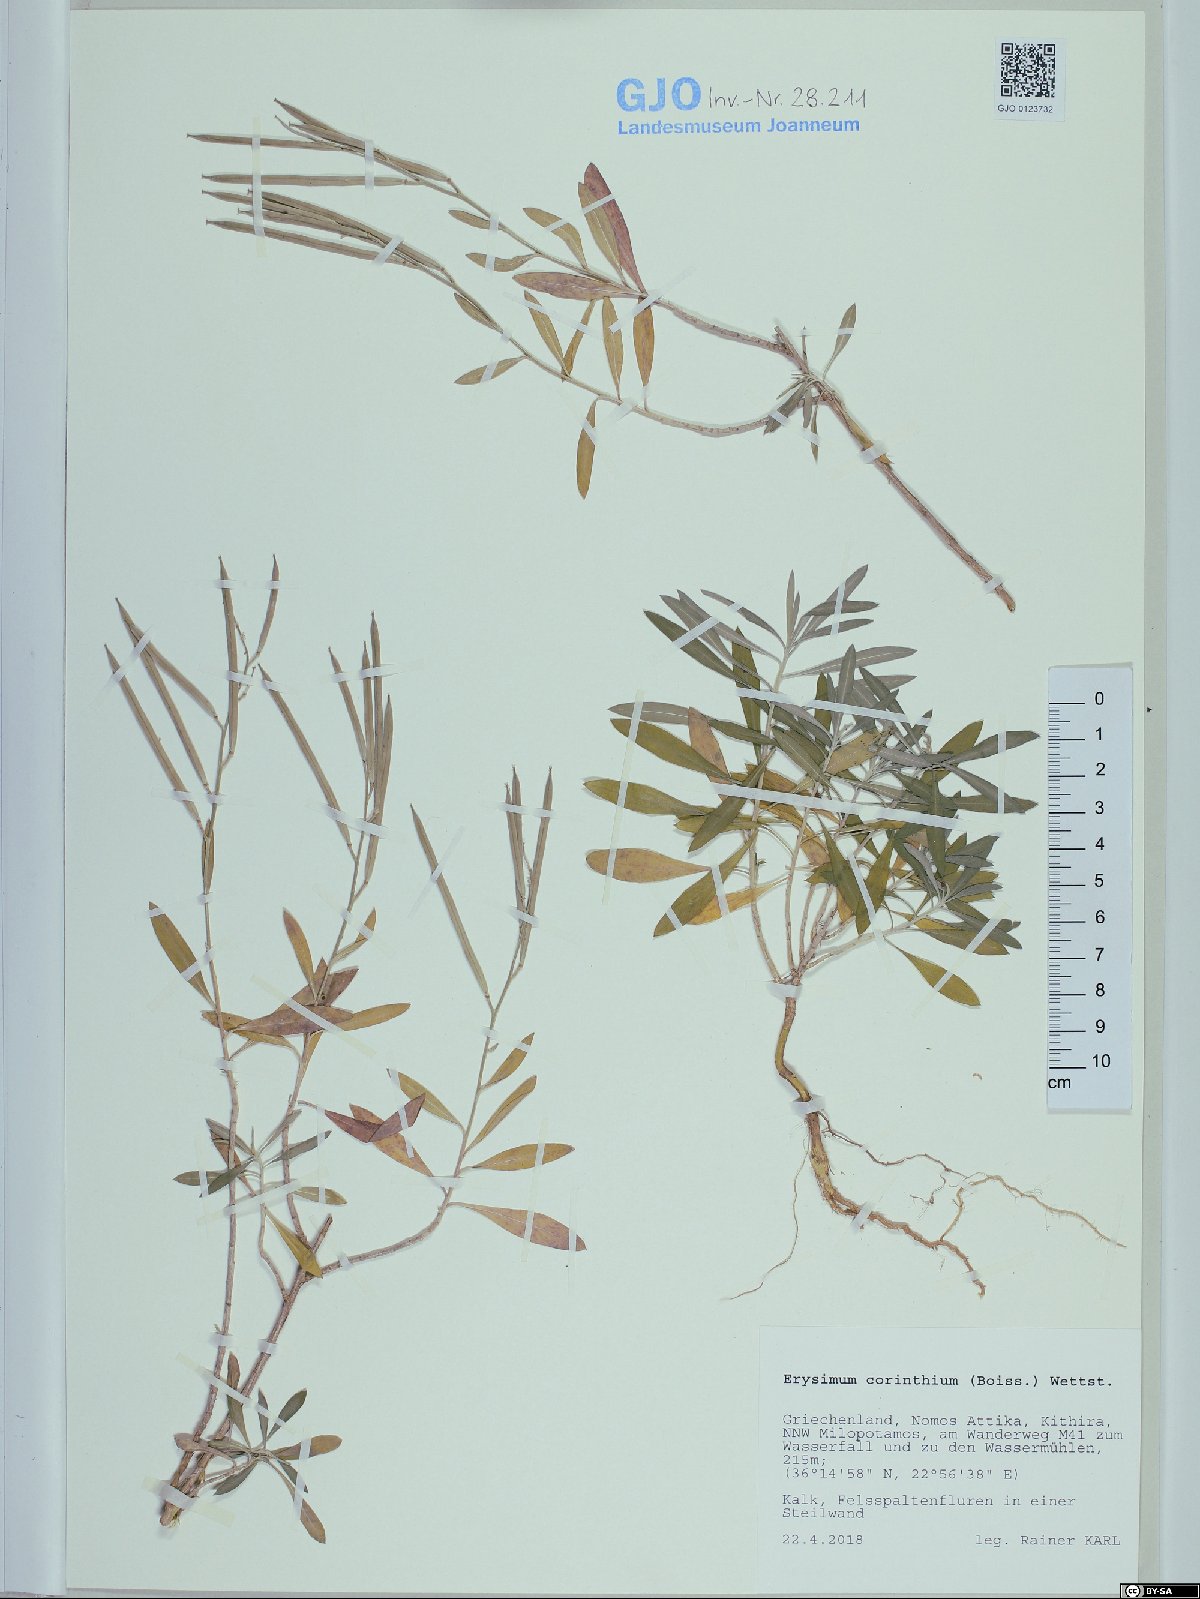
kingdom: Plantae
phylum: Tracheophyta
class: Magnoliopsida
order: Brassicales
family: Brassicaceae
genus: Erysimum
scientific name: Erysimum corinthium
